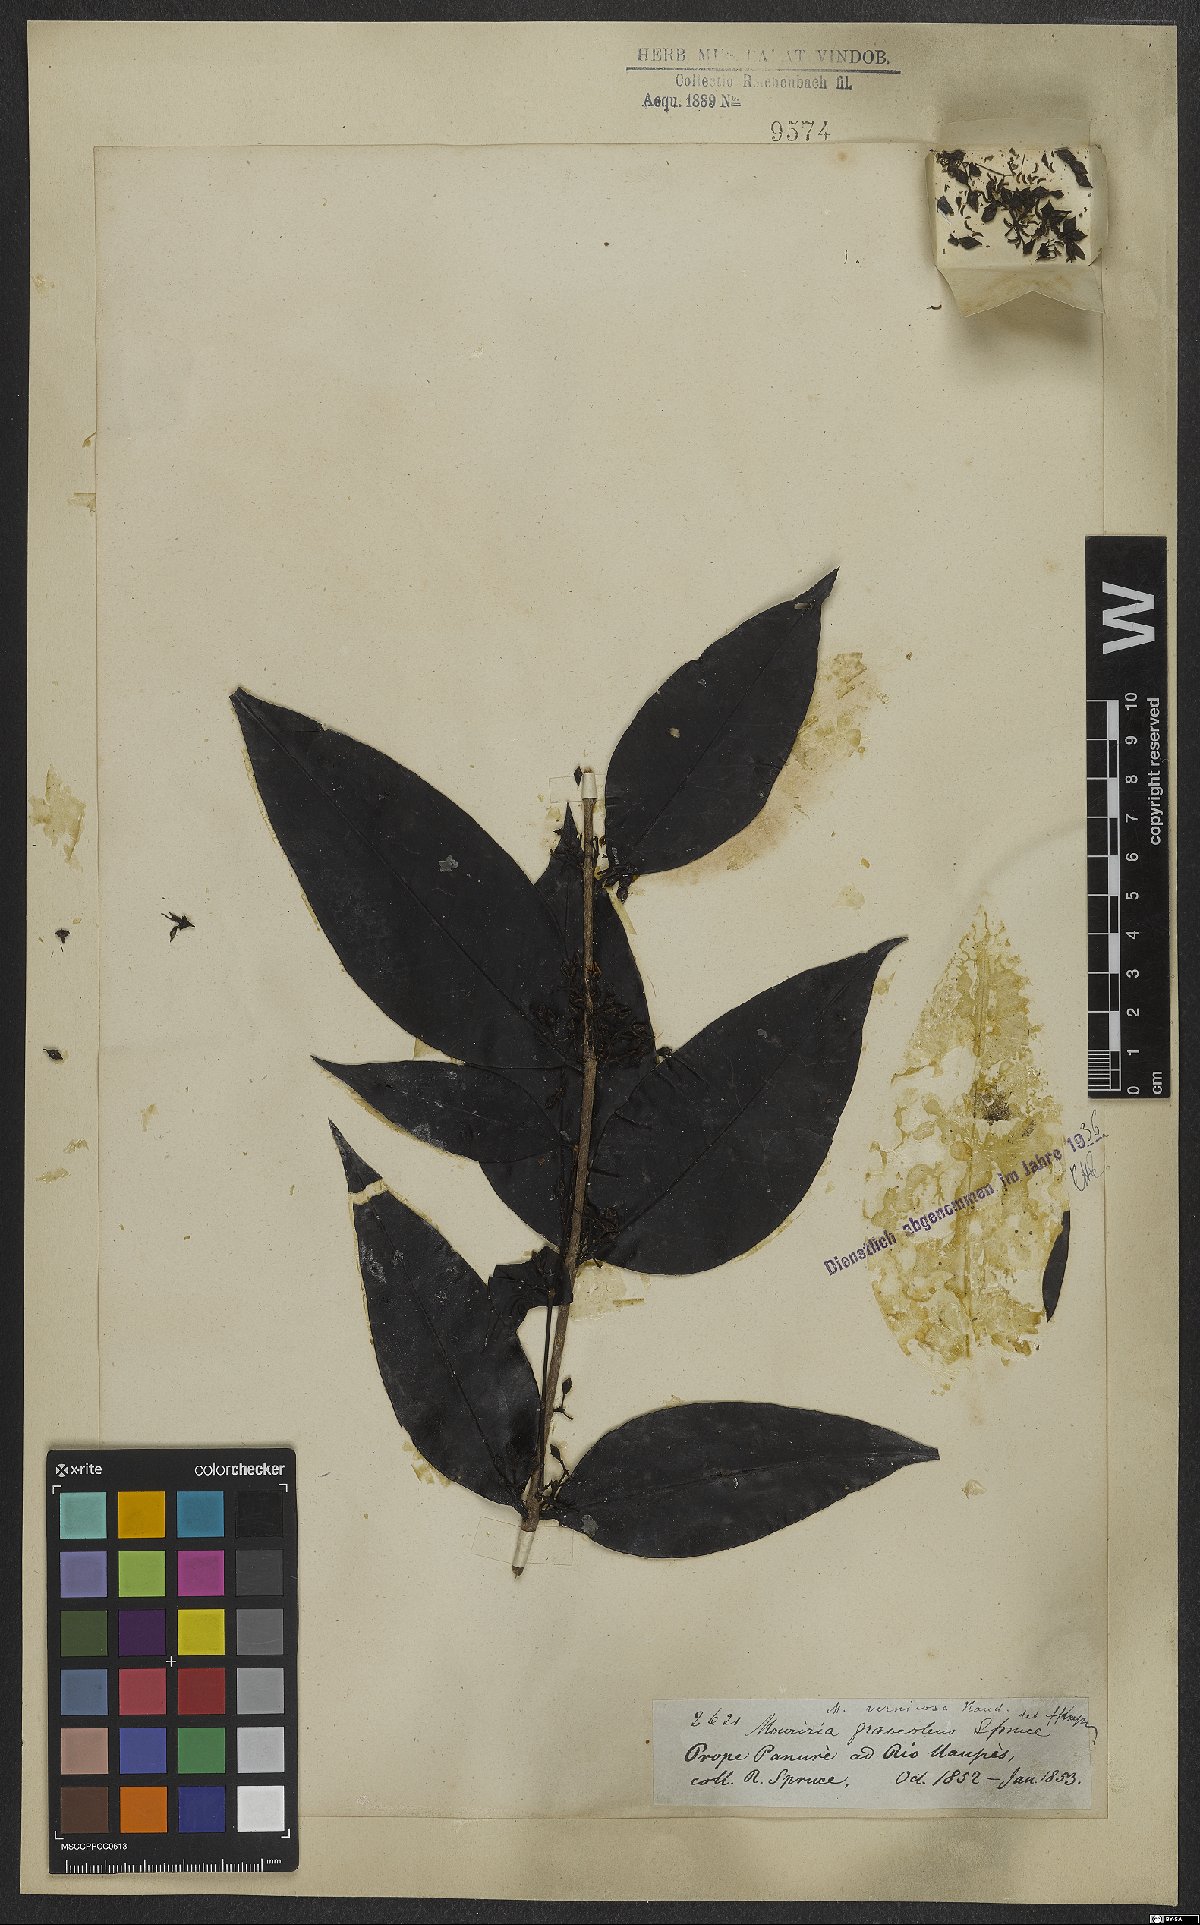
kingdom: Plantae
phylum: Tracheophyta
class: Magnoliopsida
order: Myrtales
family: Melastomataceae
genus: Mouriri
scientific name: Mouriri vernicosa
